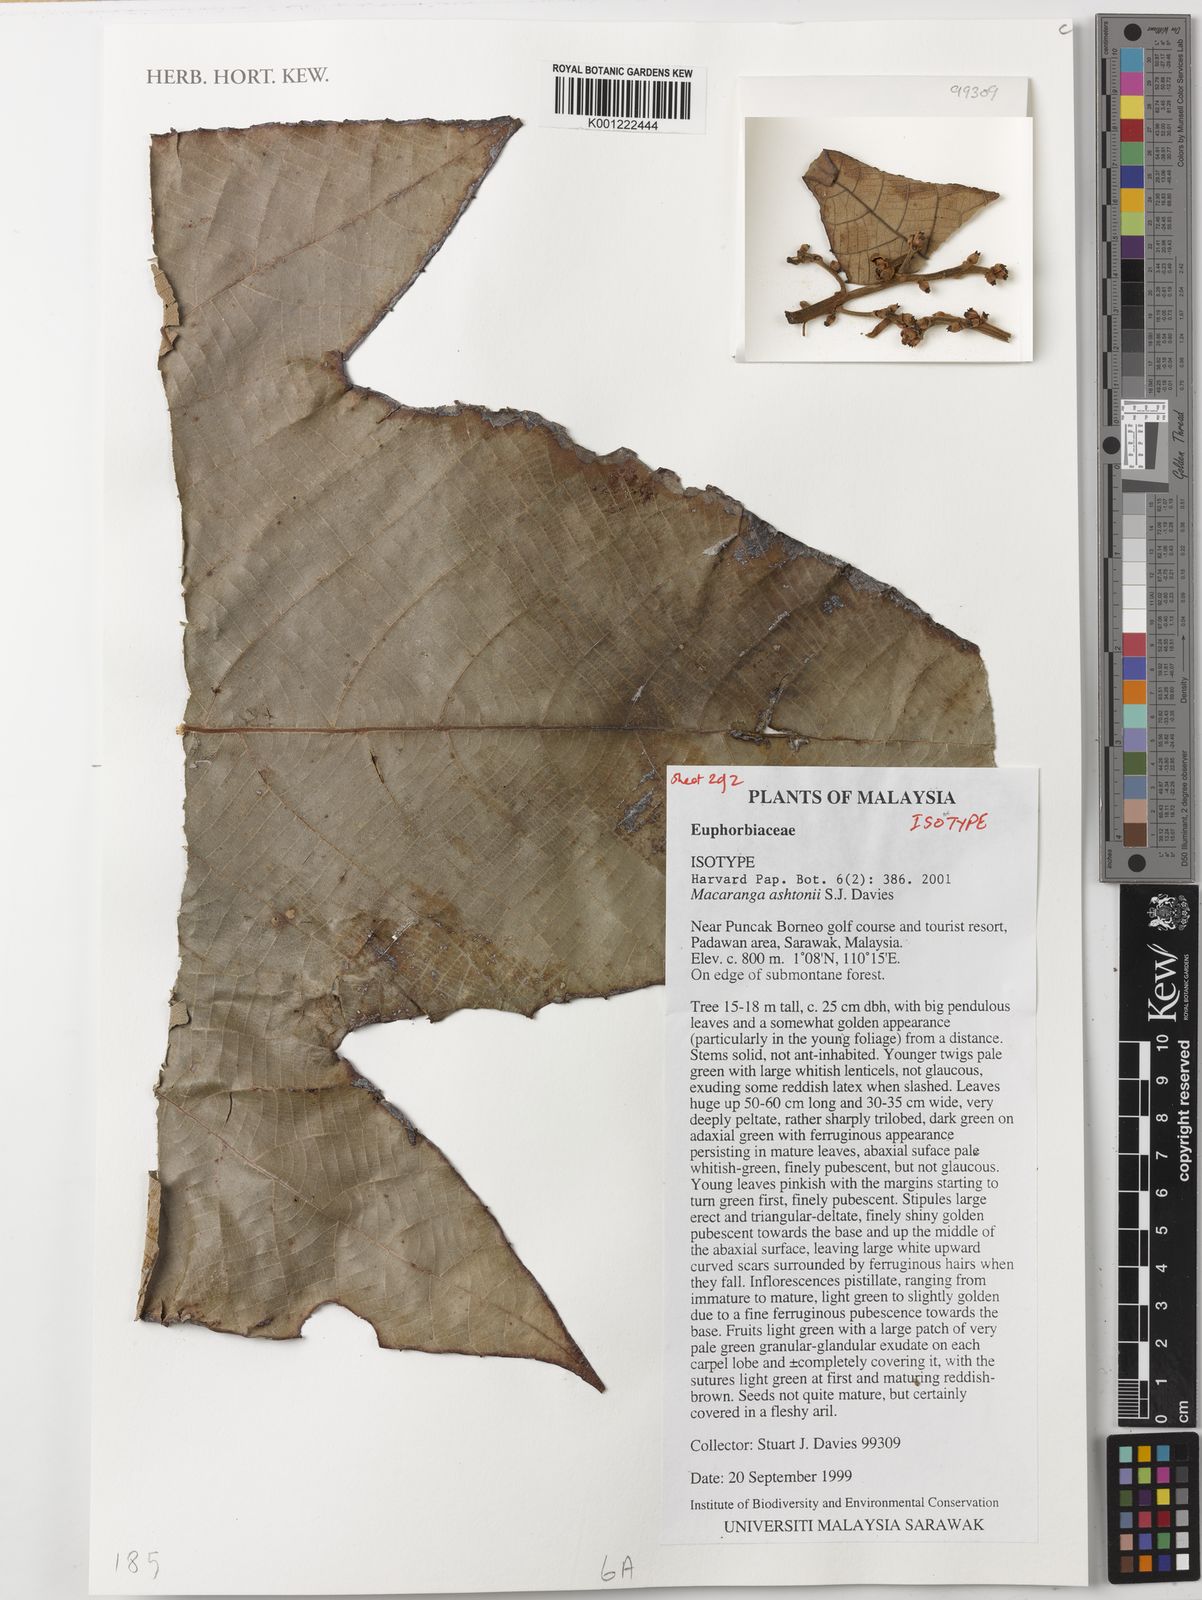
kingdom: Plantae
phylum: Tracheophyta
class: Magnoliopsida
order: Malpighiales
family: Euphorbiaceae
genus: Macaranga
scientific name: Macaranga ashtonii
